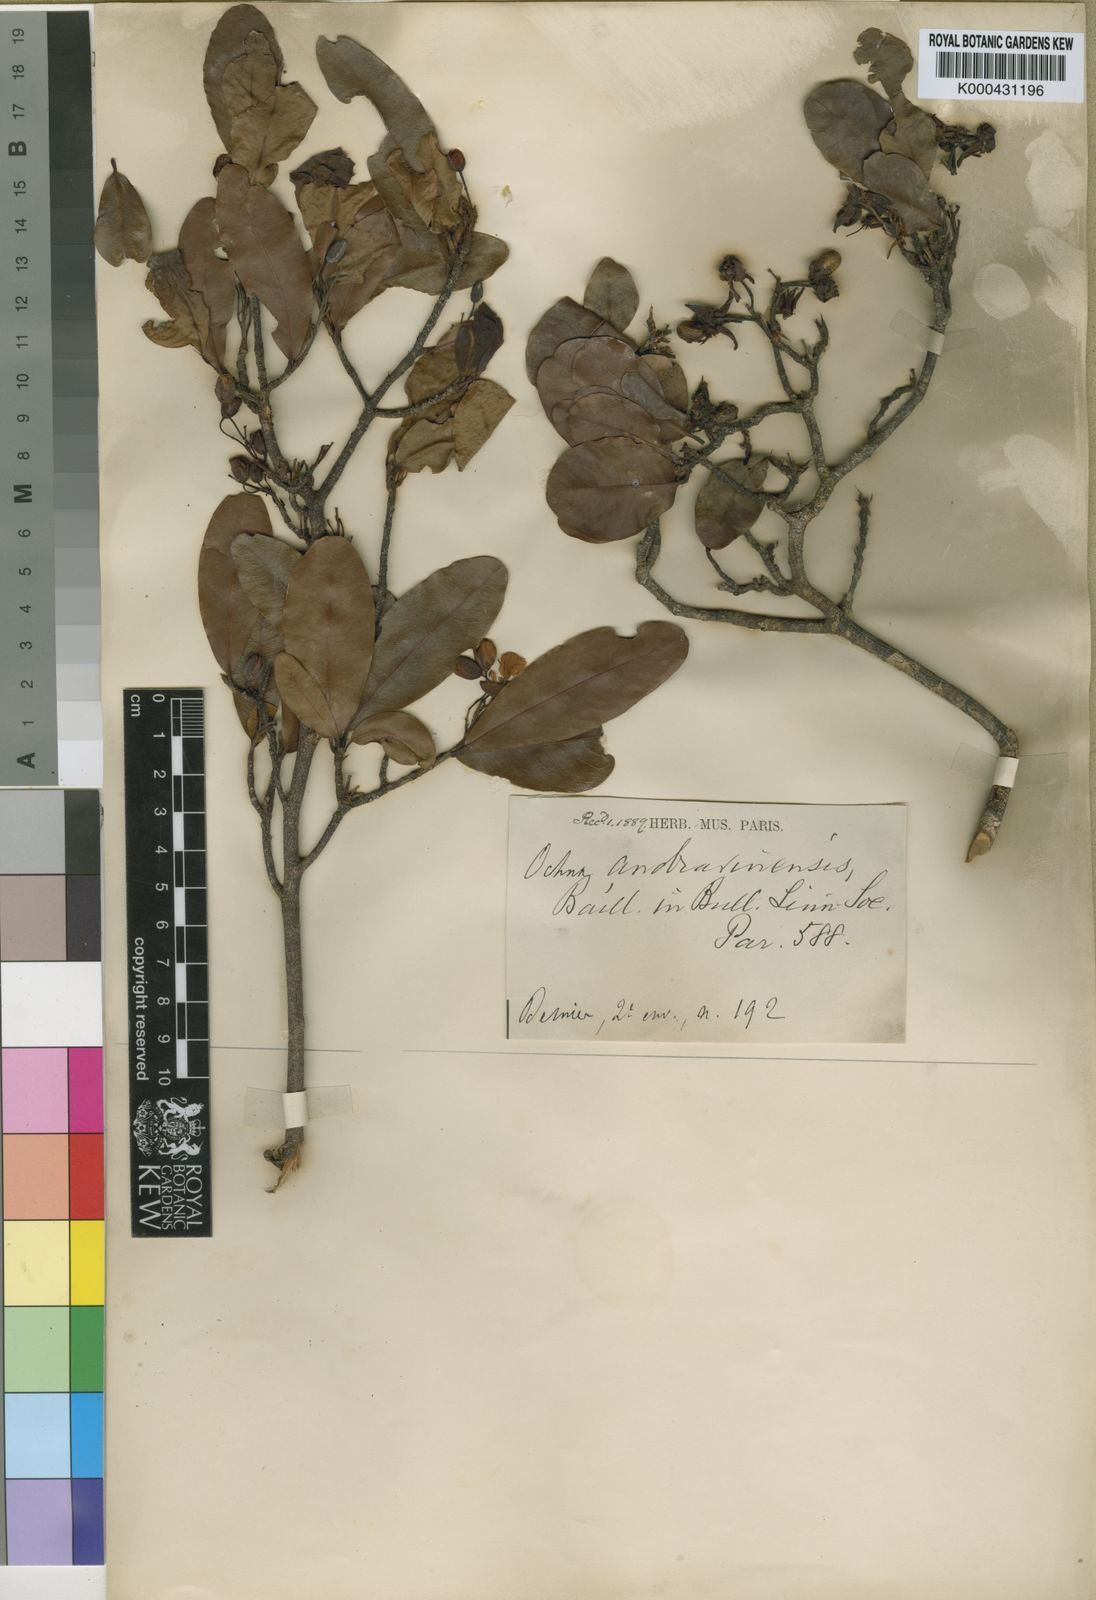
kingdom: Plantae
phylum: Tracheophyta
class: Magnoliopsida
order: Malpighiales
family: Ochnaceae
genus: Ochna
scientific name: Ochna andravinensis
